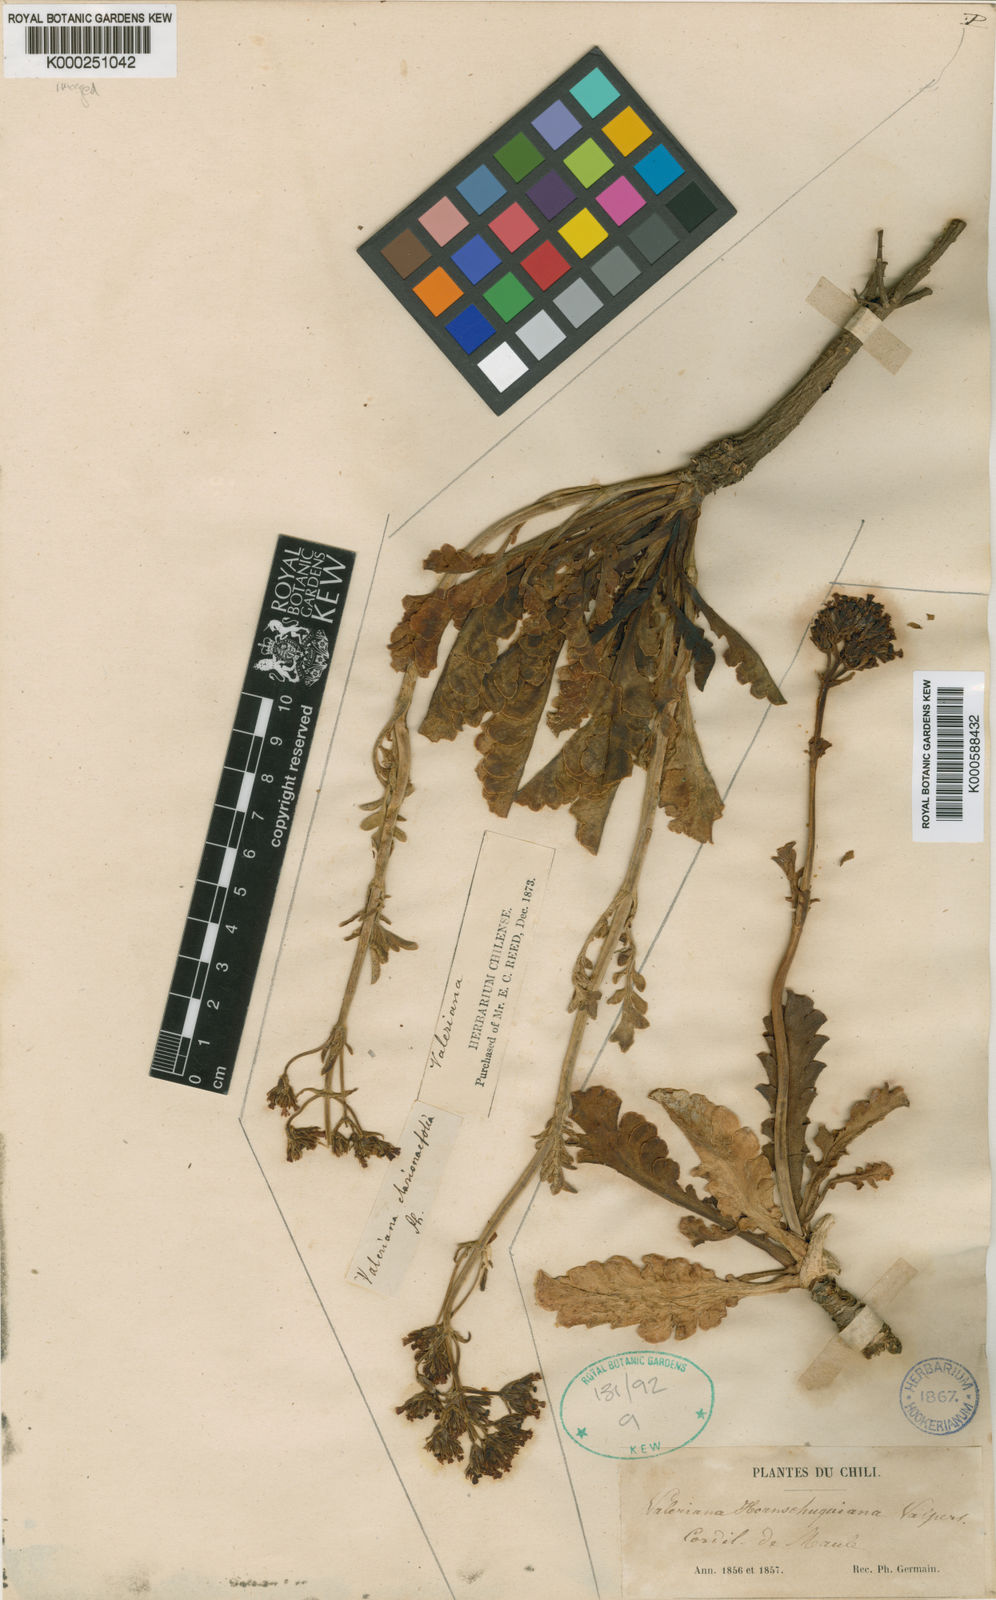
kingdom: Plantae
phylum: Tracheophyta
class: Magnoliopsida
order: Dipsacales
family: Caprifoliaceae
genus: Valeriana
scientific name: Valeriana clarionifolia
